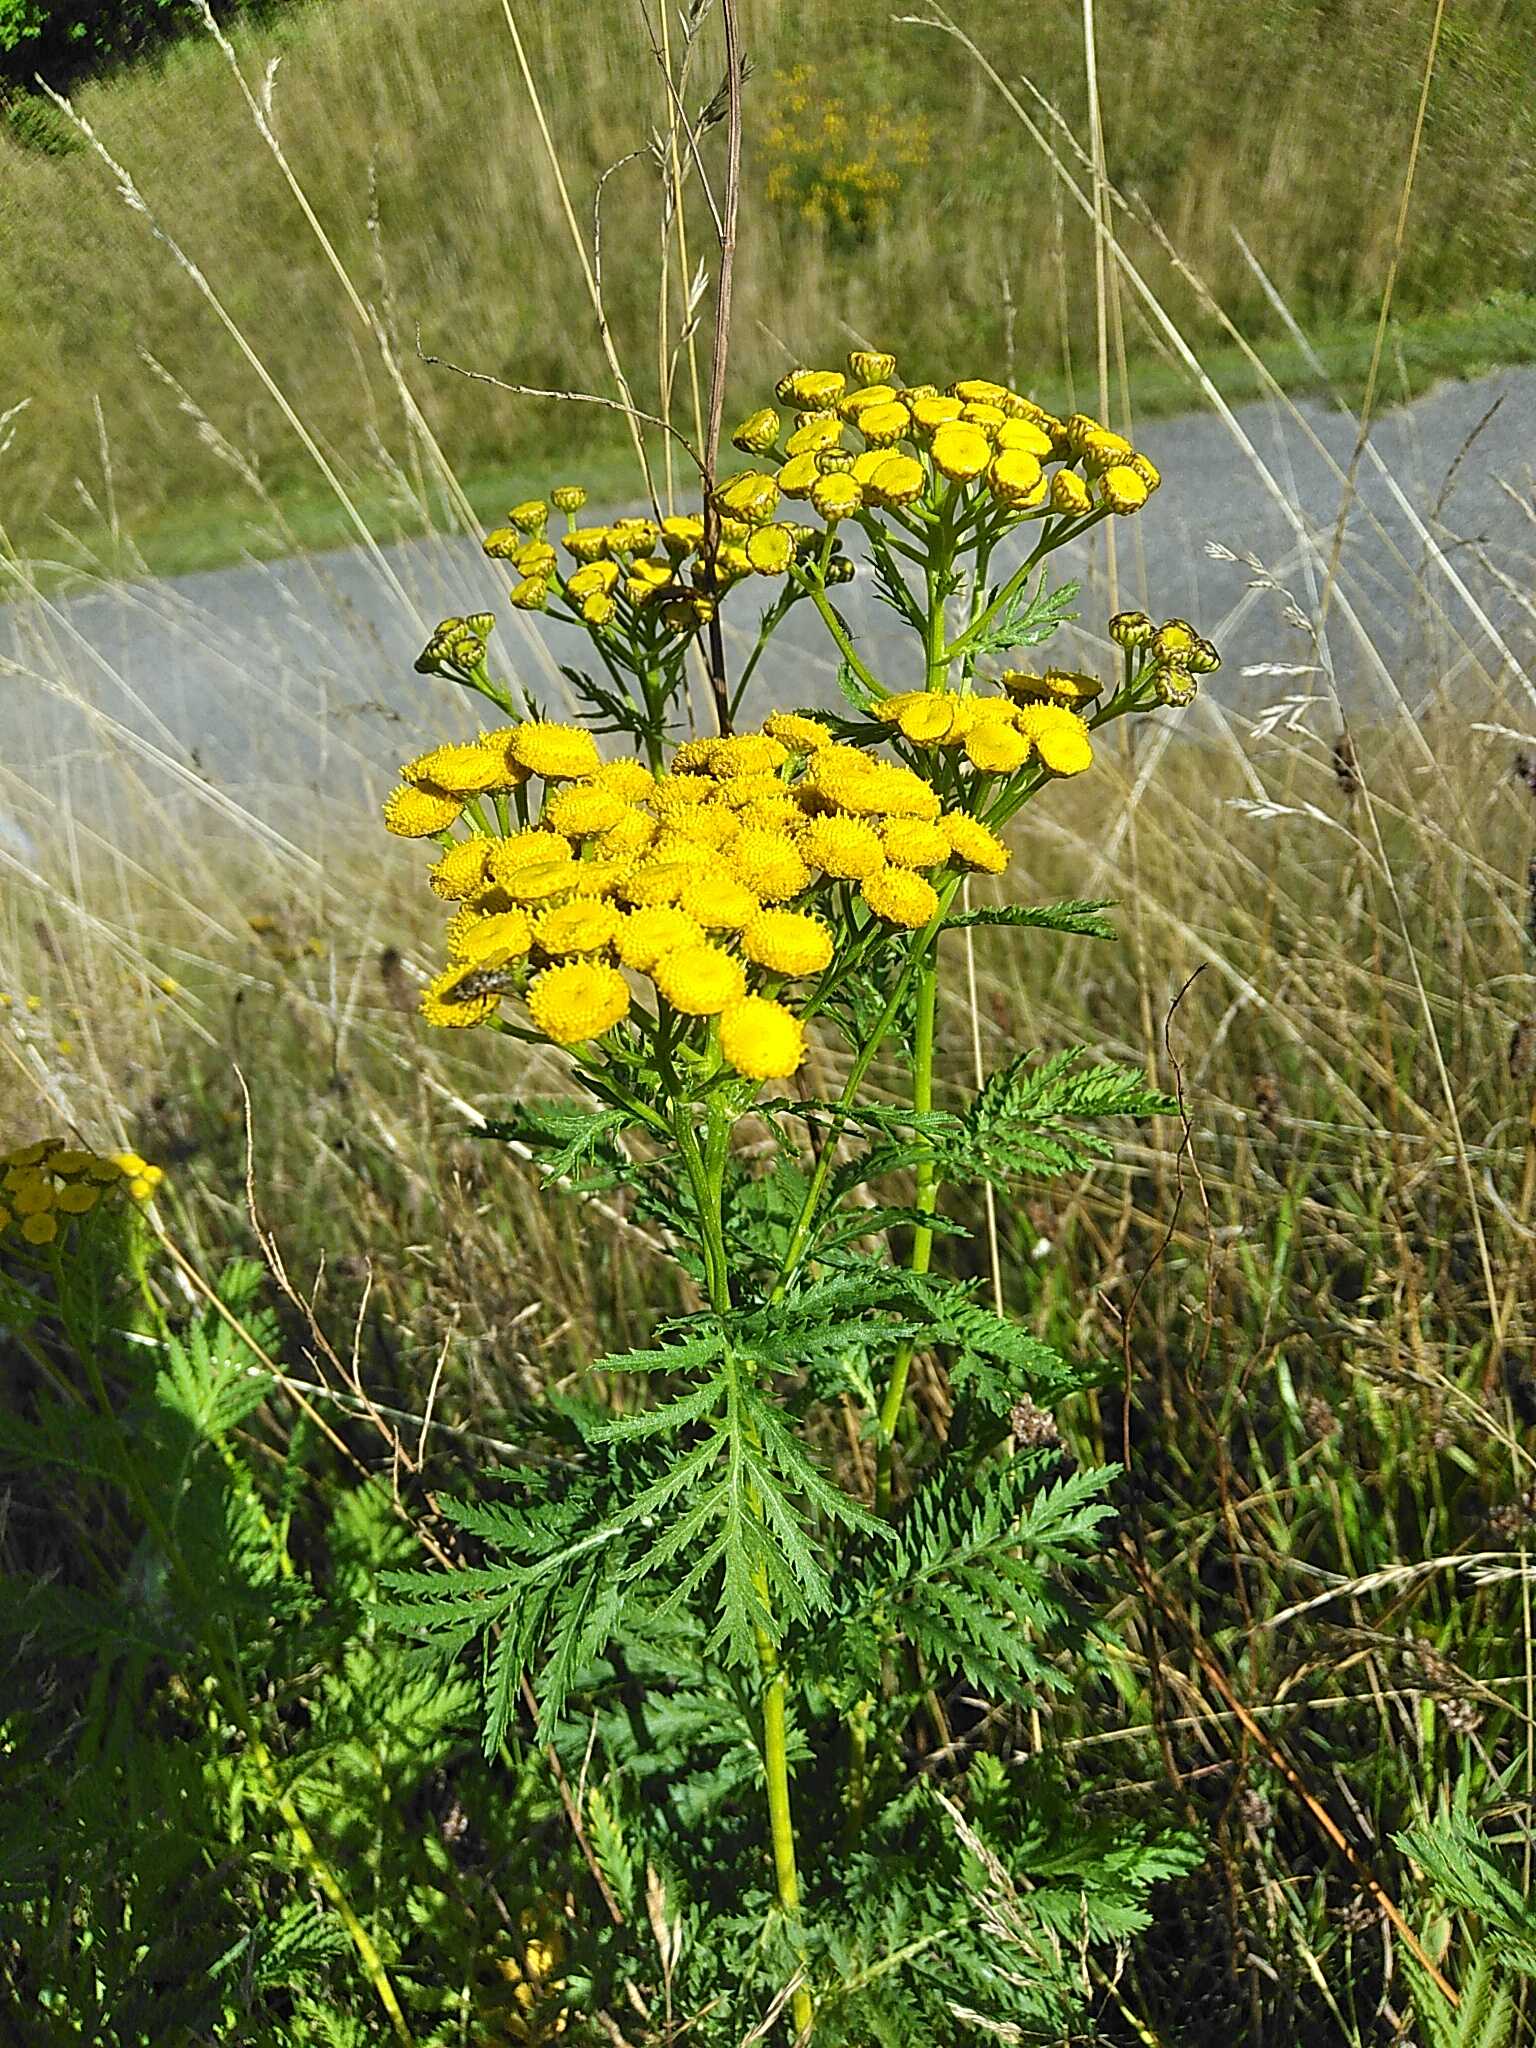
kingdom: Plantae
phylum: Tracheophyta
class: Magnoliopsida
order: Asterales
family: Asteraceae
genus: Tanacetum
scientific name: Tanacetum vulgare
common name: Rejnfan
